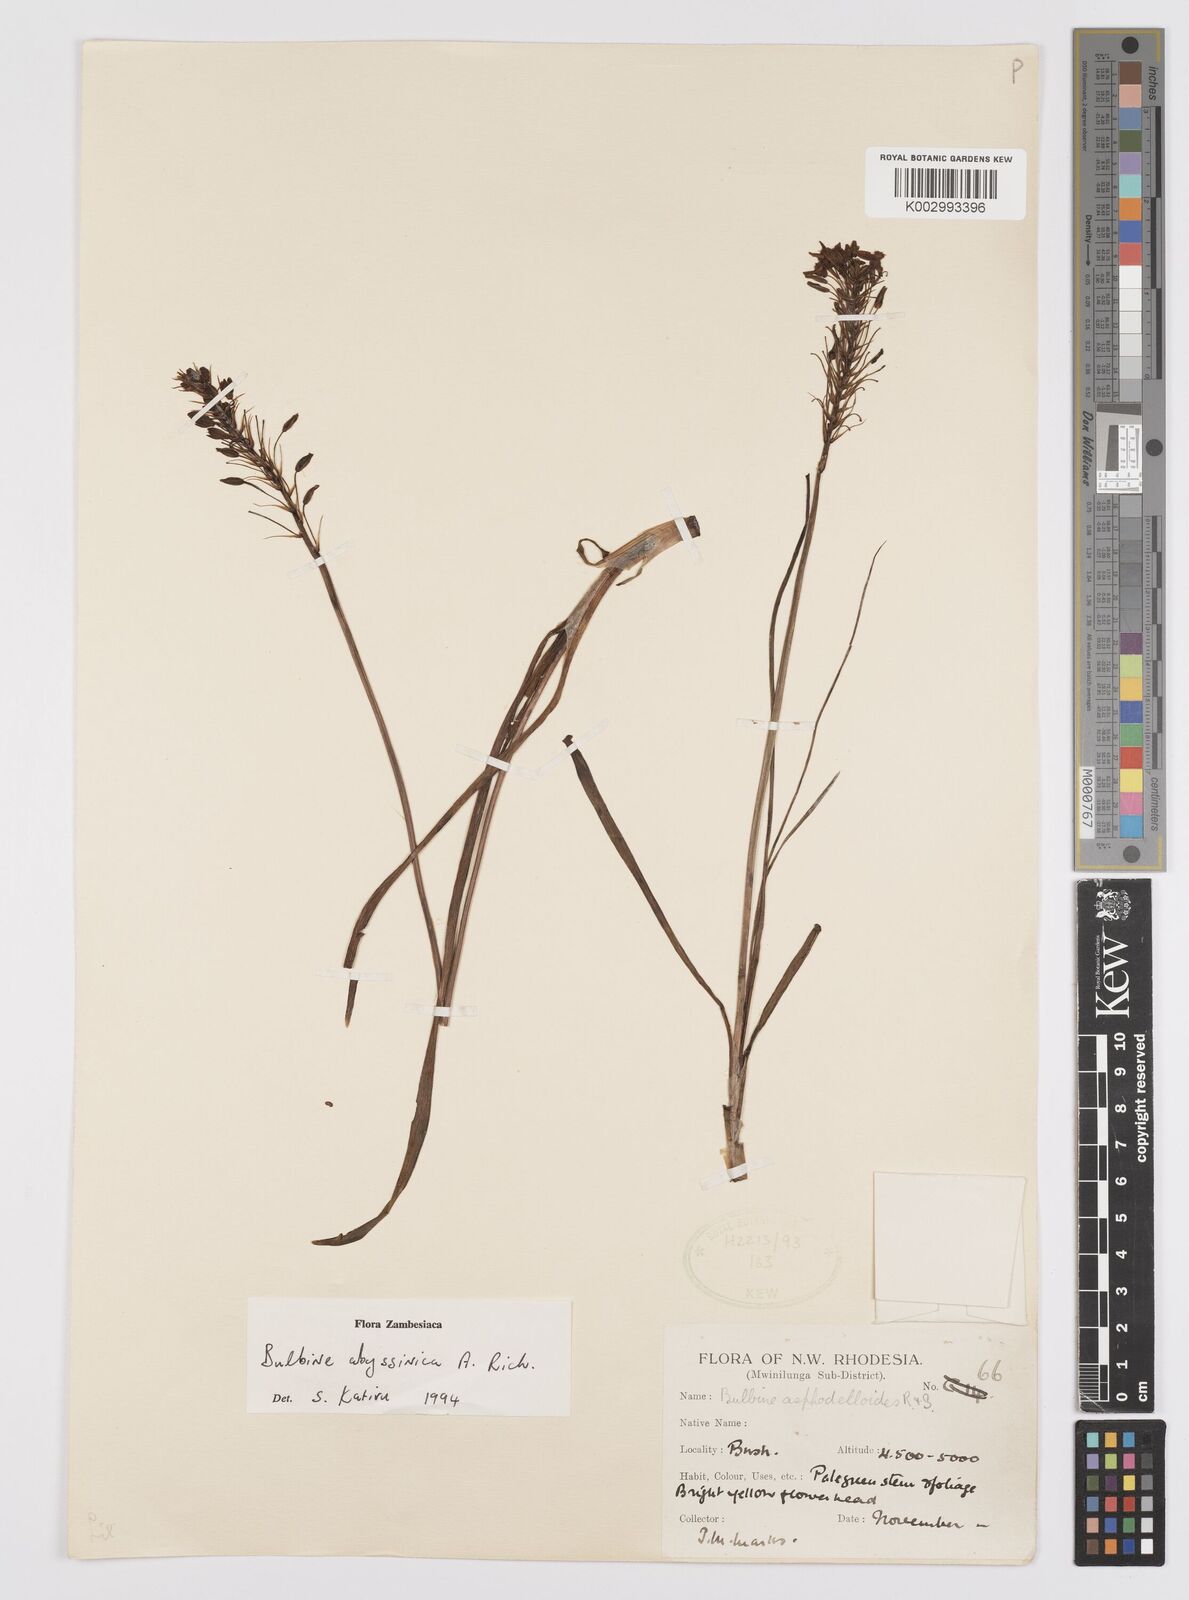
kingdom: Plantae
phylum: Tracheophyta
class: Liliopsida
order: Asparagales
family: Asphodelaceae
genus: Bulbine
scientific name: Bulbine abyssinica
